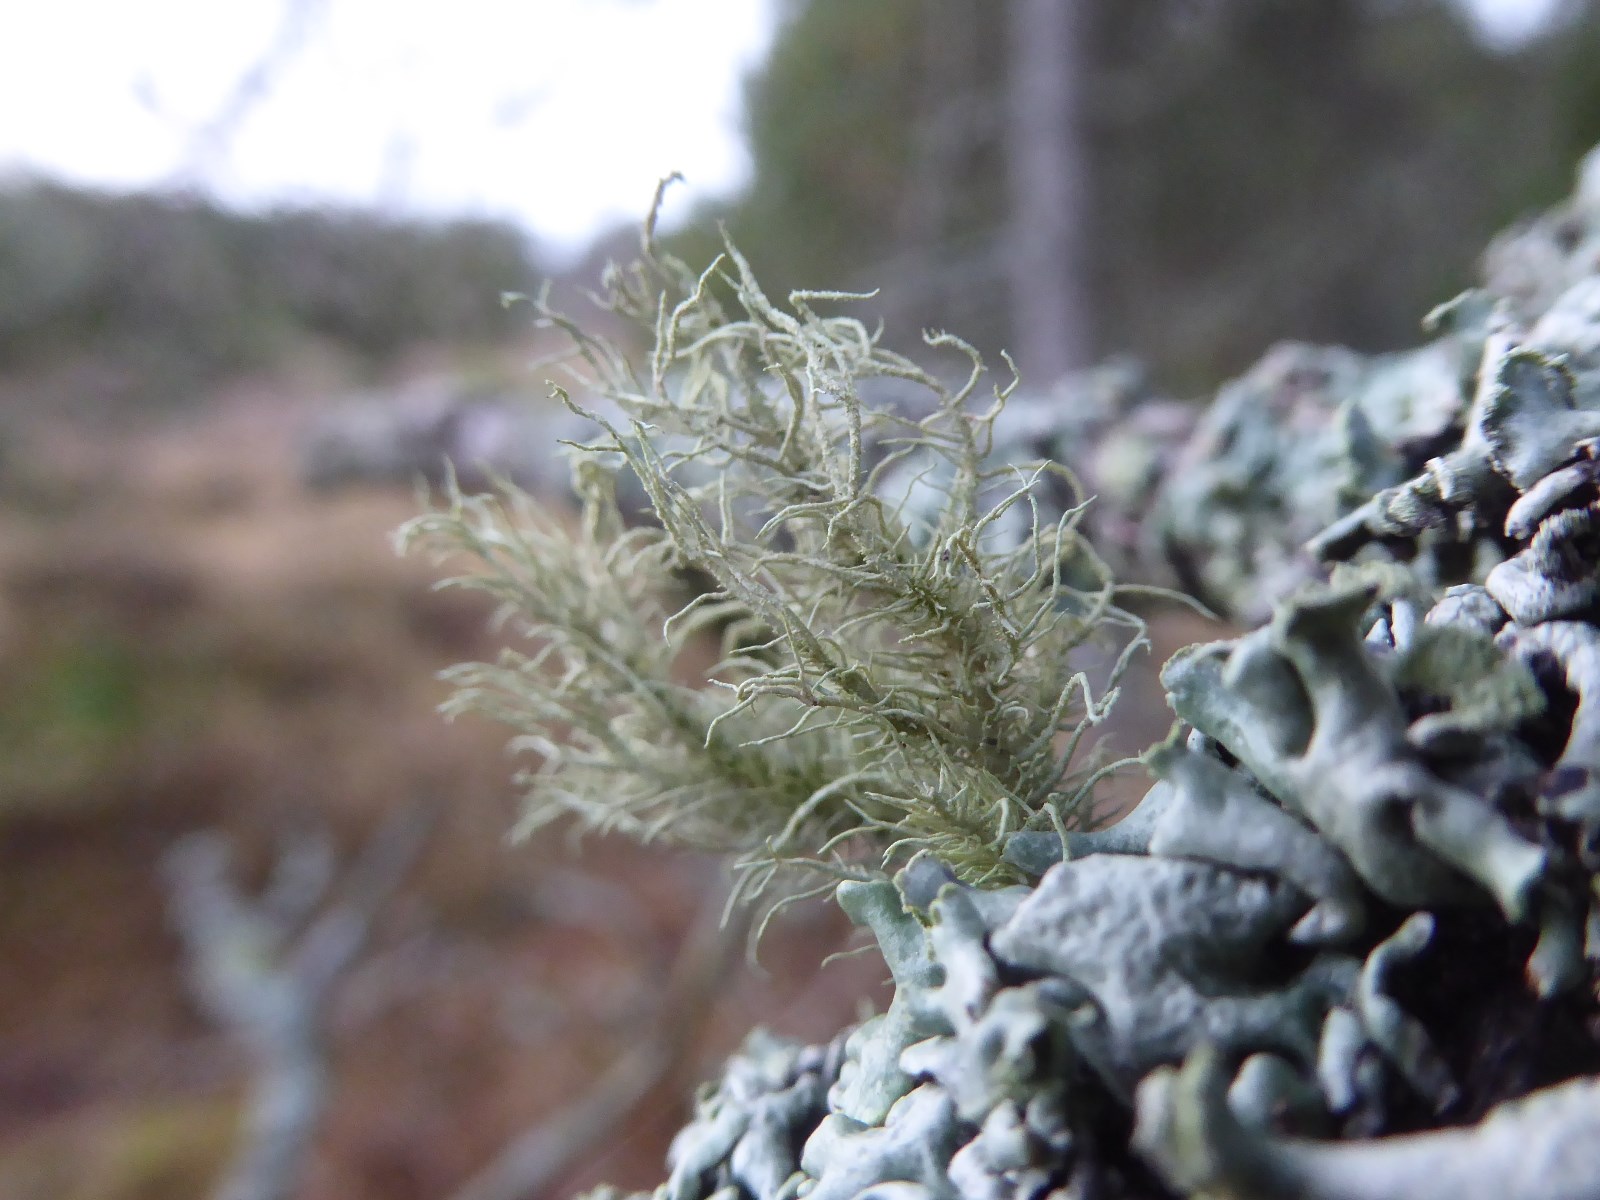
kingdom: Fungi
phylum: Ascomycota
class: Lecanoromycetes
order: Lecanorales
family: Parmeliaceae
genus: Usnea
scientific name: Usnea hirta
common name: liden skæglav
